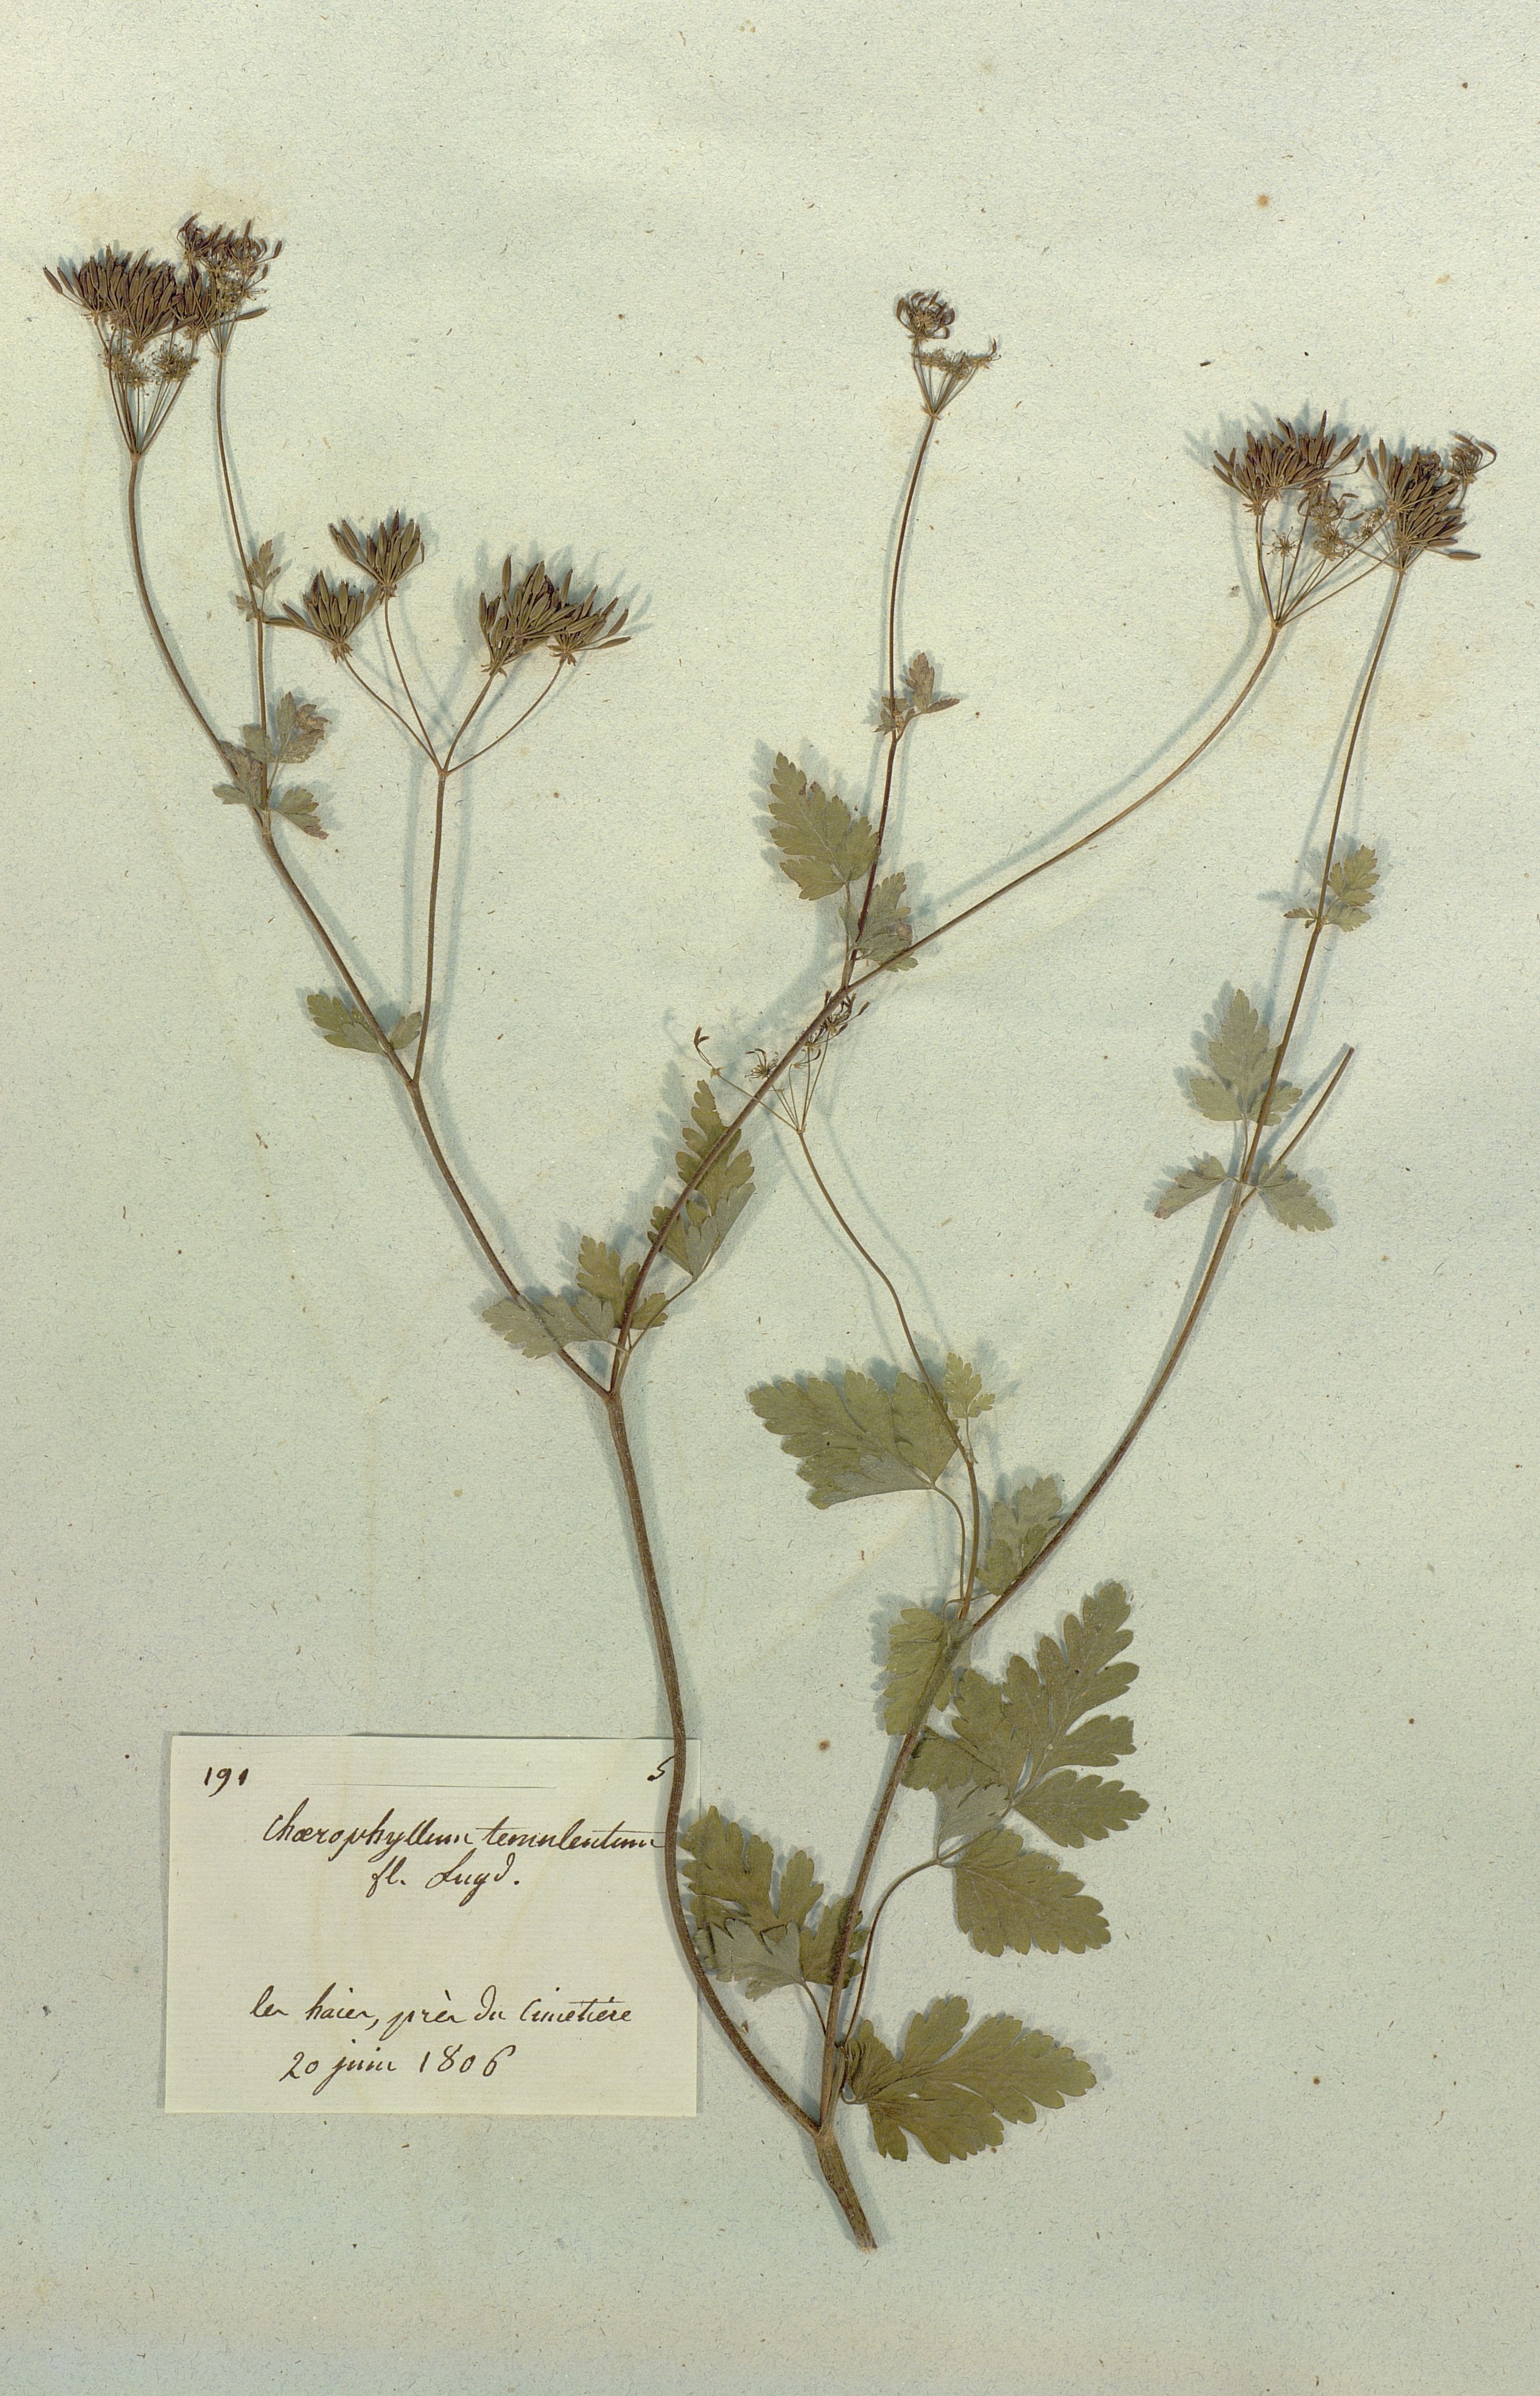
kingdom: Plantae
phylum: Tracheophyta
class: Magnoliopsida
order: Apiales
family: Apiaceae
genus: Chaerophyllum
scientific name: Chaerophyllum temulum
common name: Rough chervil
